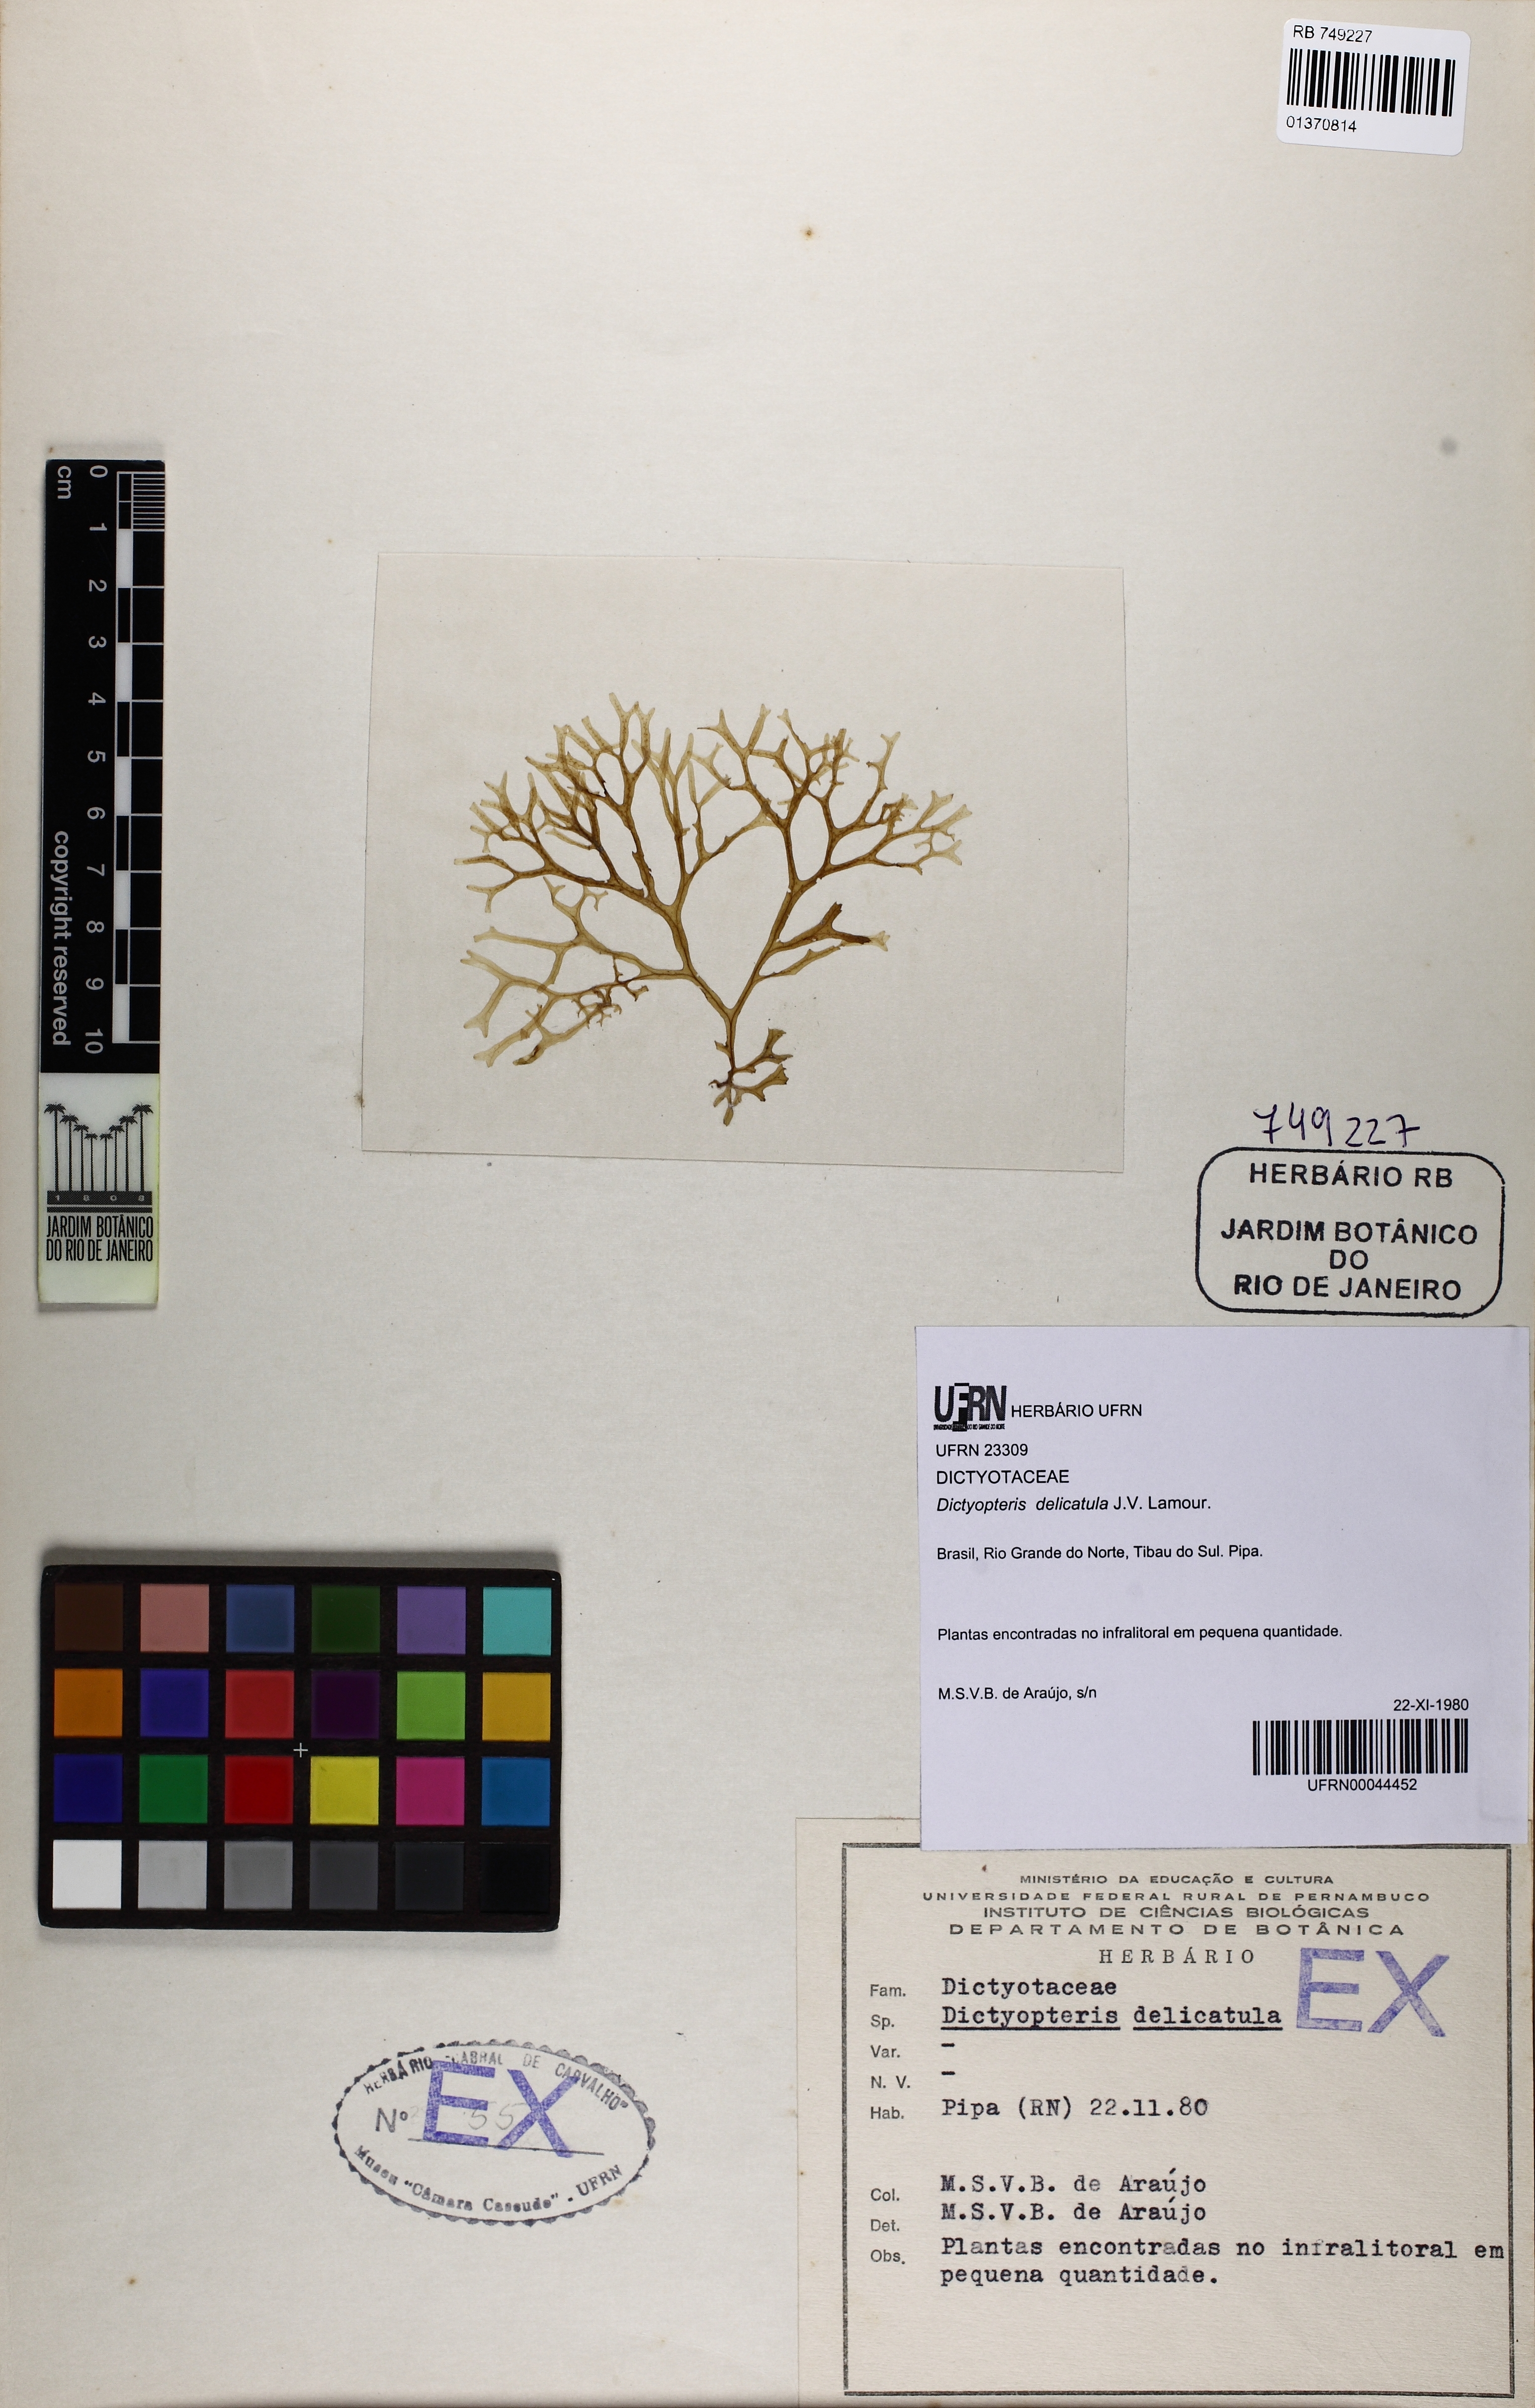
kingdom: Chromista
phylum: Ochrophyta
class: Phaeophyceae
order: Dictyotales
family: Dictyotaceae
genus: Dictyopteris
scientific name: Dictyopteris delicatula
